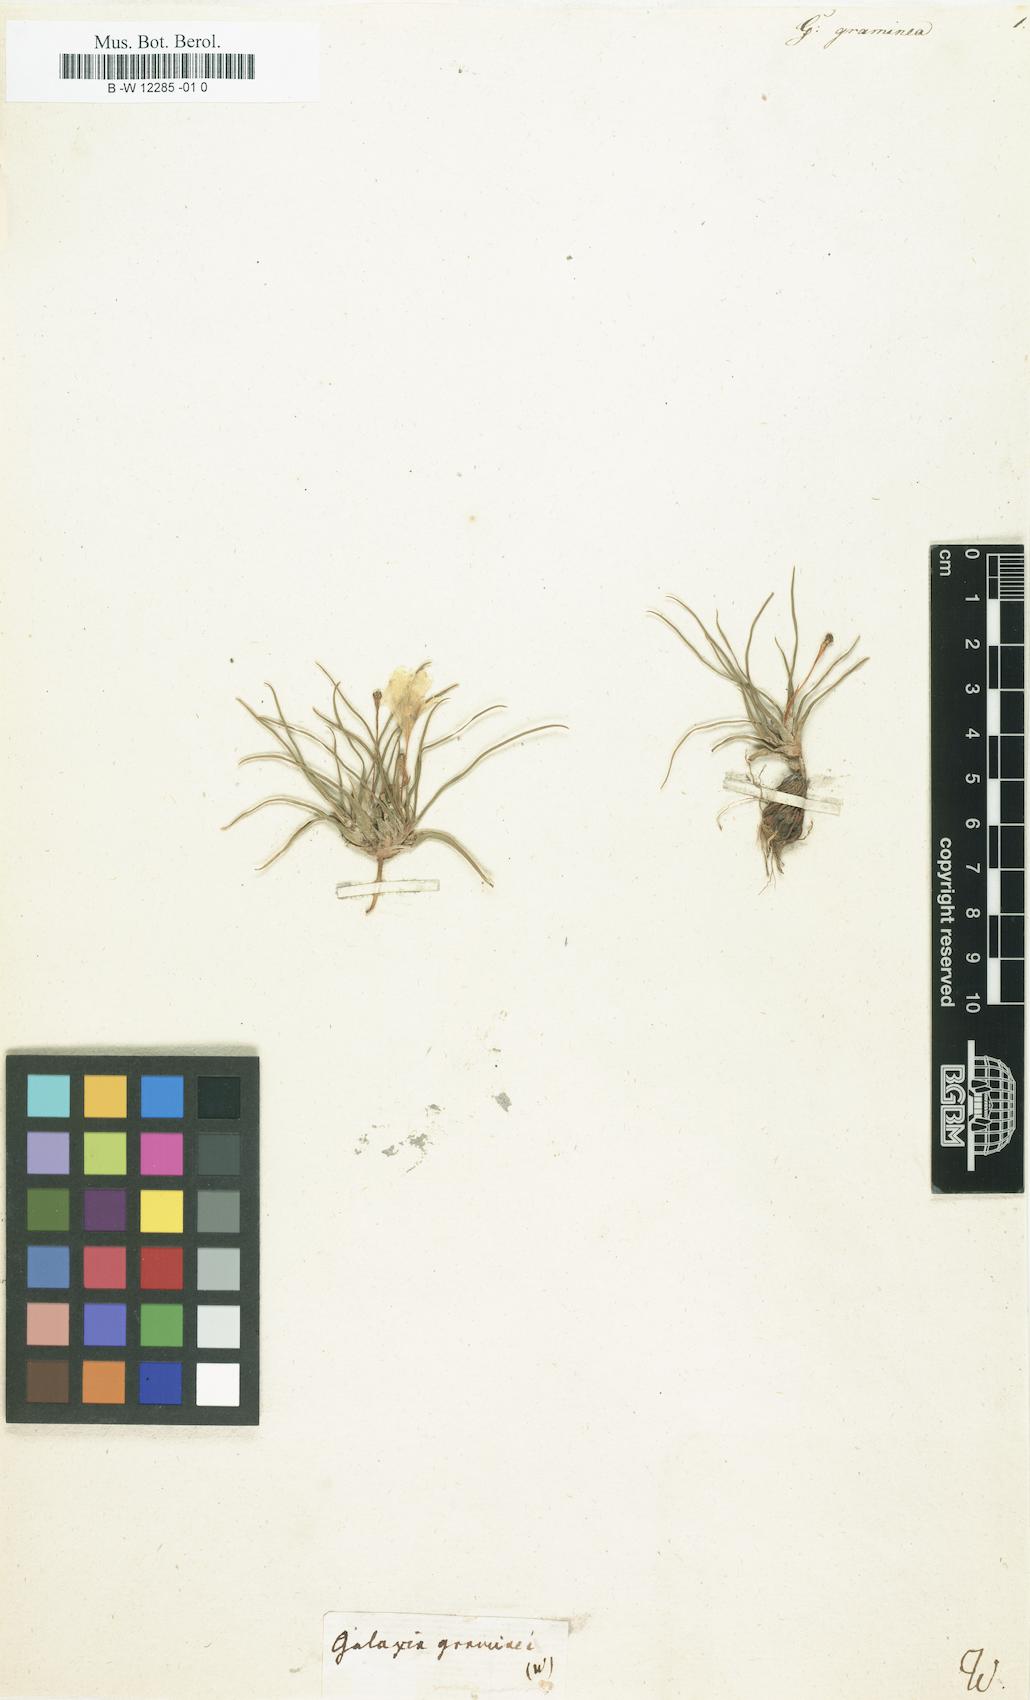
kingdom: Plantae
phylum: Tracheophyta
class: Liliopsida
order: Asparagales
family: Iridaceae
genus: Moraea
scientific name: Moraea fugacissima
